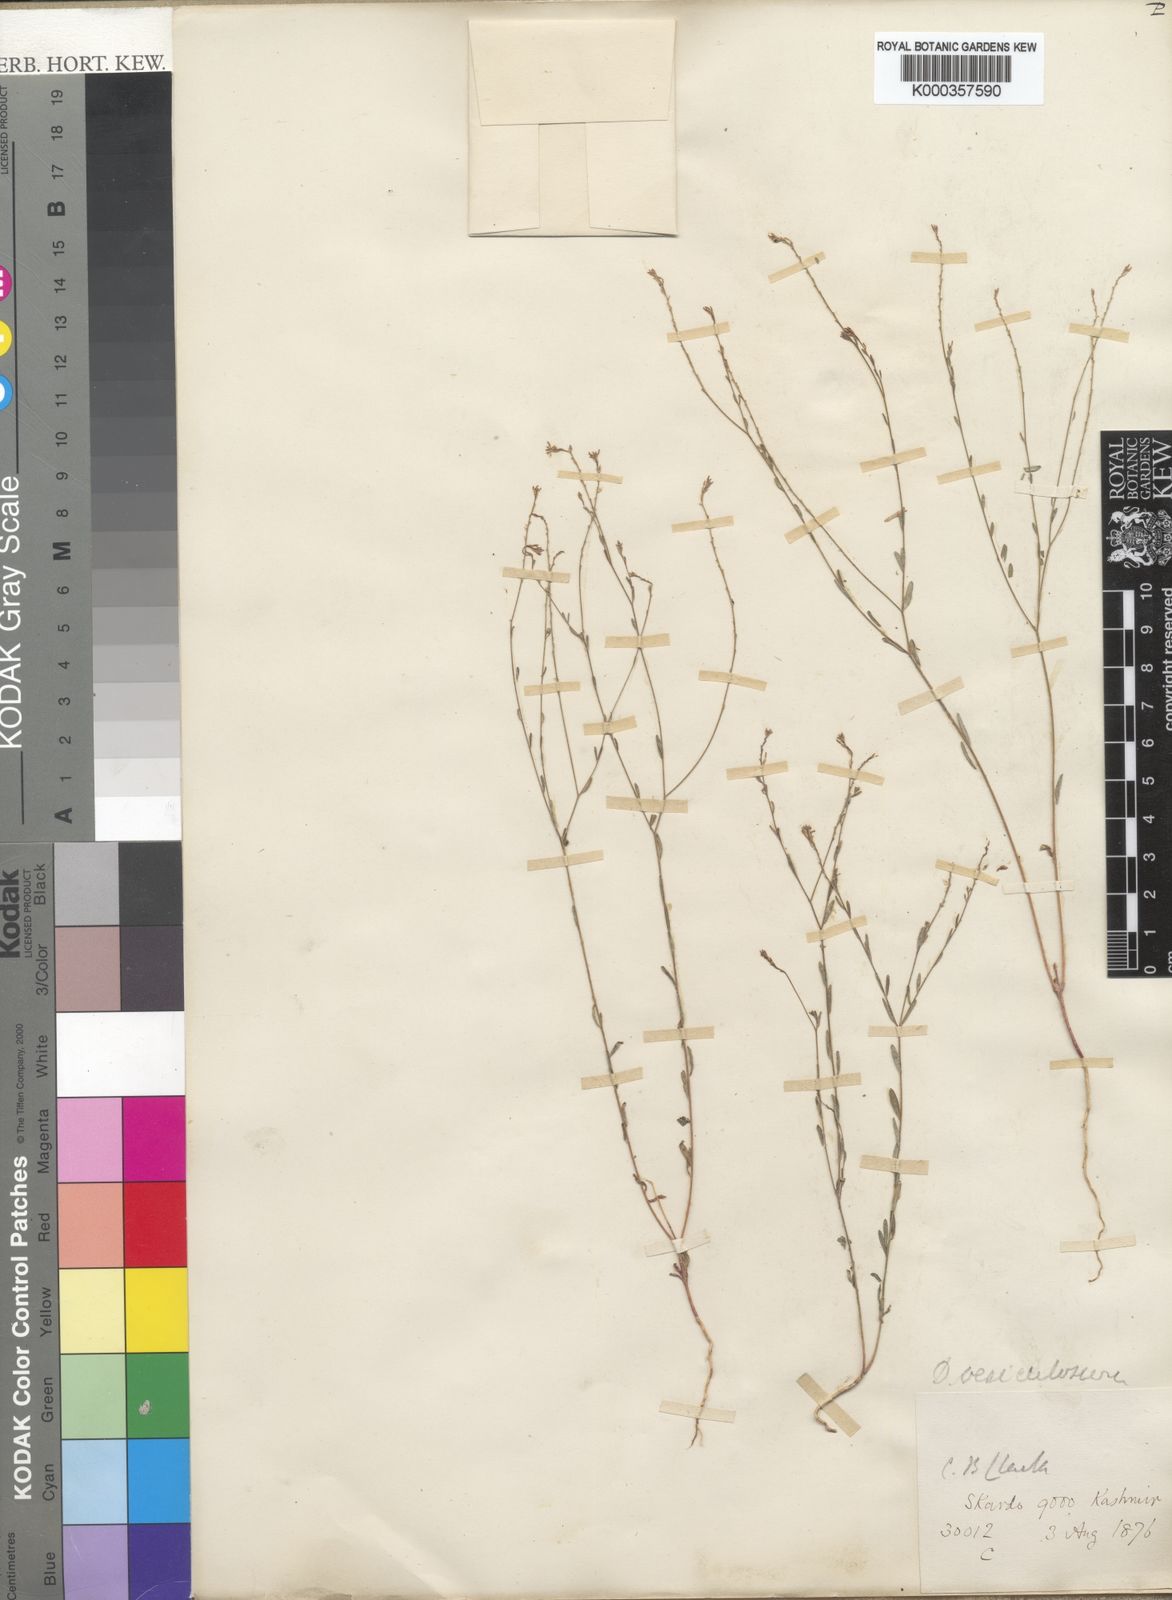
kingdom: Plantae
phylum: Tracheophyta
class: Magnoliopsida
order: Malvales
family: Thymelaeaceae
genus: Diarthron
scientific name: Diarthron vesiculosum
